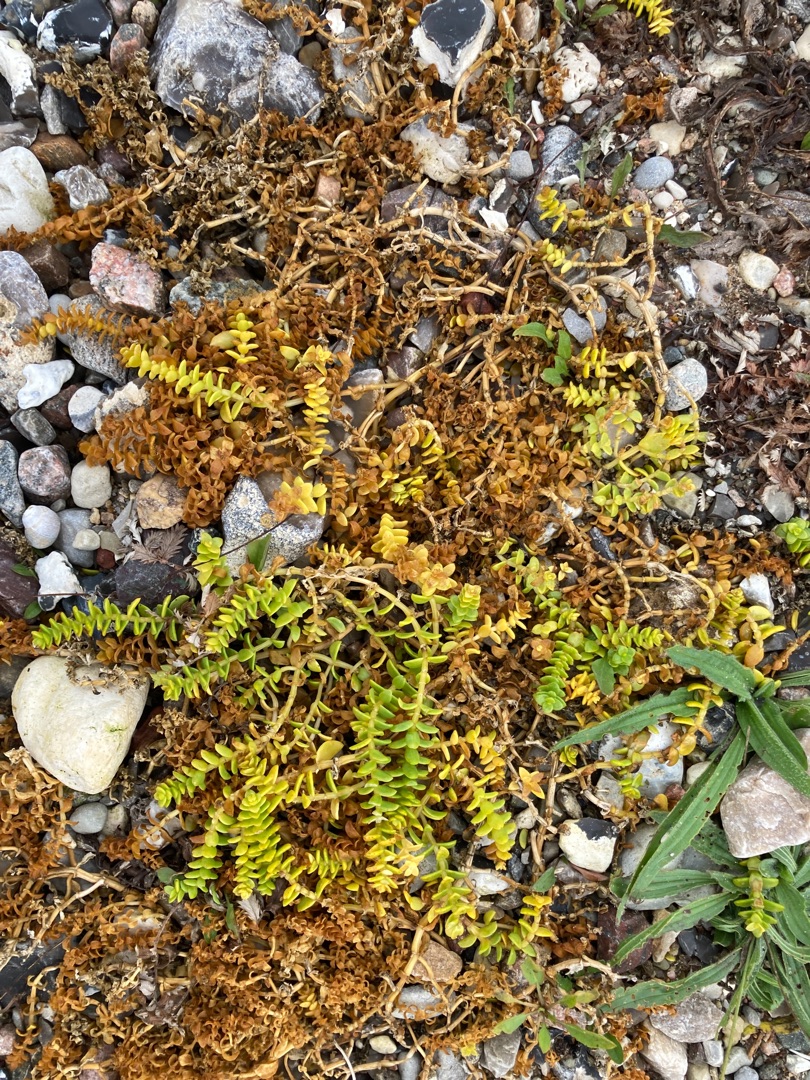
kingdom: Plantae
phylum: Tracheophyta
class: Magnoliopsida
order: Caryophyllales
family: Caryophyllaceae
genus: Honckenya
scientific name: Honckenya peploides
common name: Strandarve
